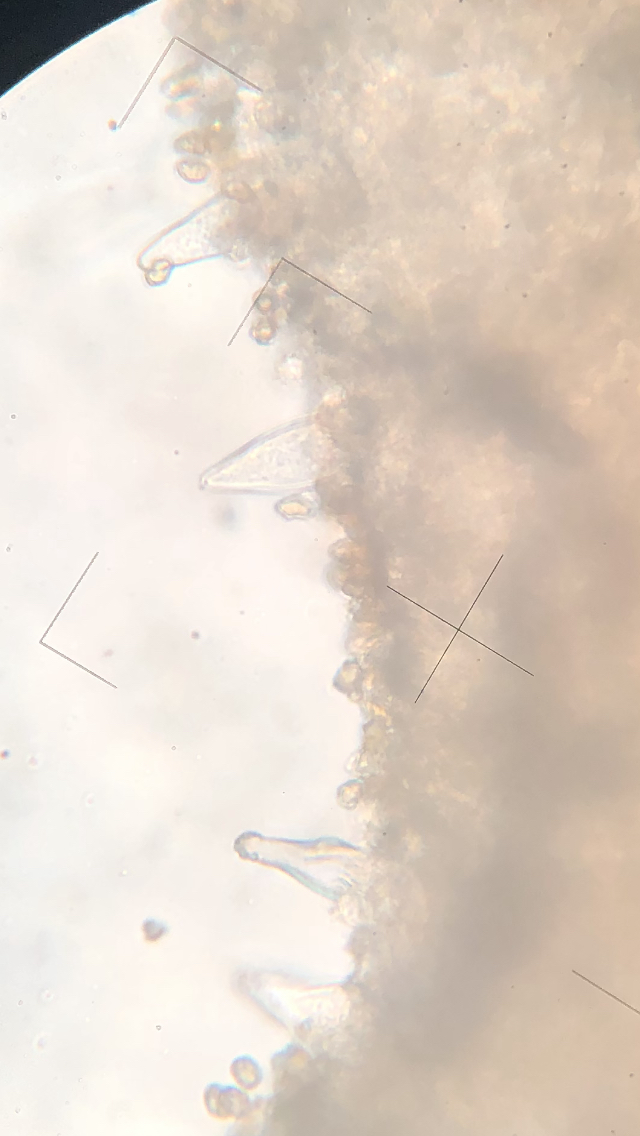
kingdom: Fungi
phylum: Basidiomycota
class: Agaricomycetes
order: Agaricales
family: Inocybaceae
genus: Inocybe
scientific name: Inocybe curvipes
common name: plæne-trævlhat
